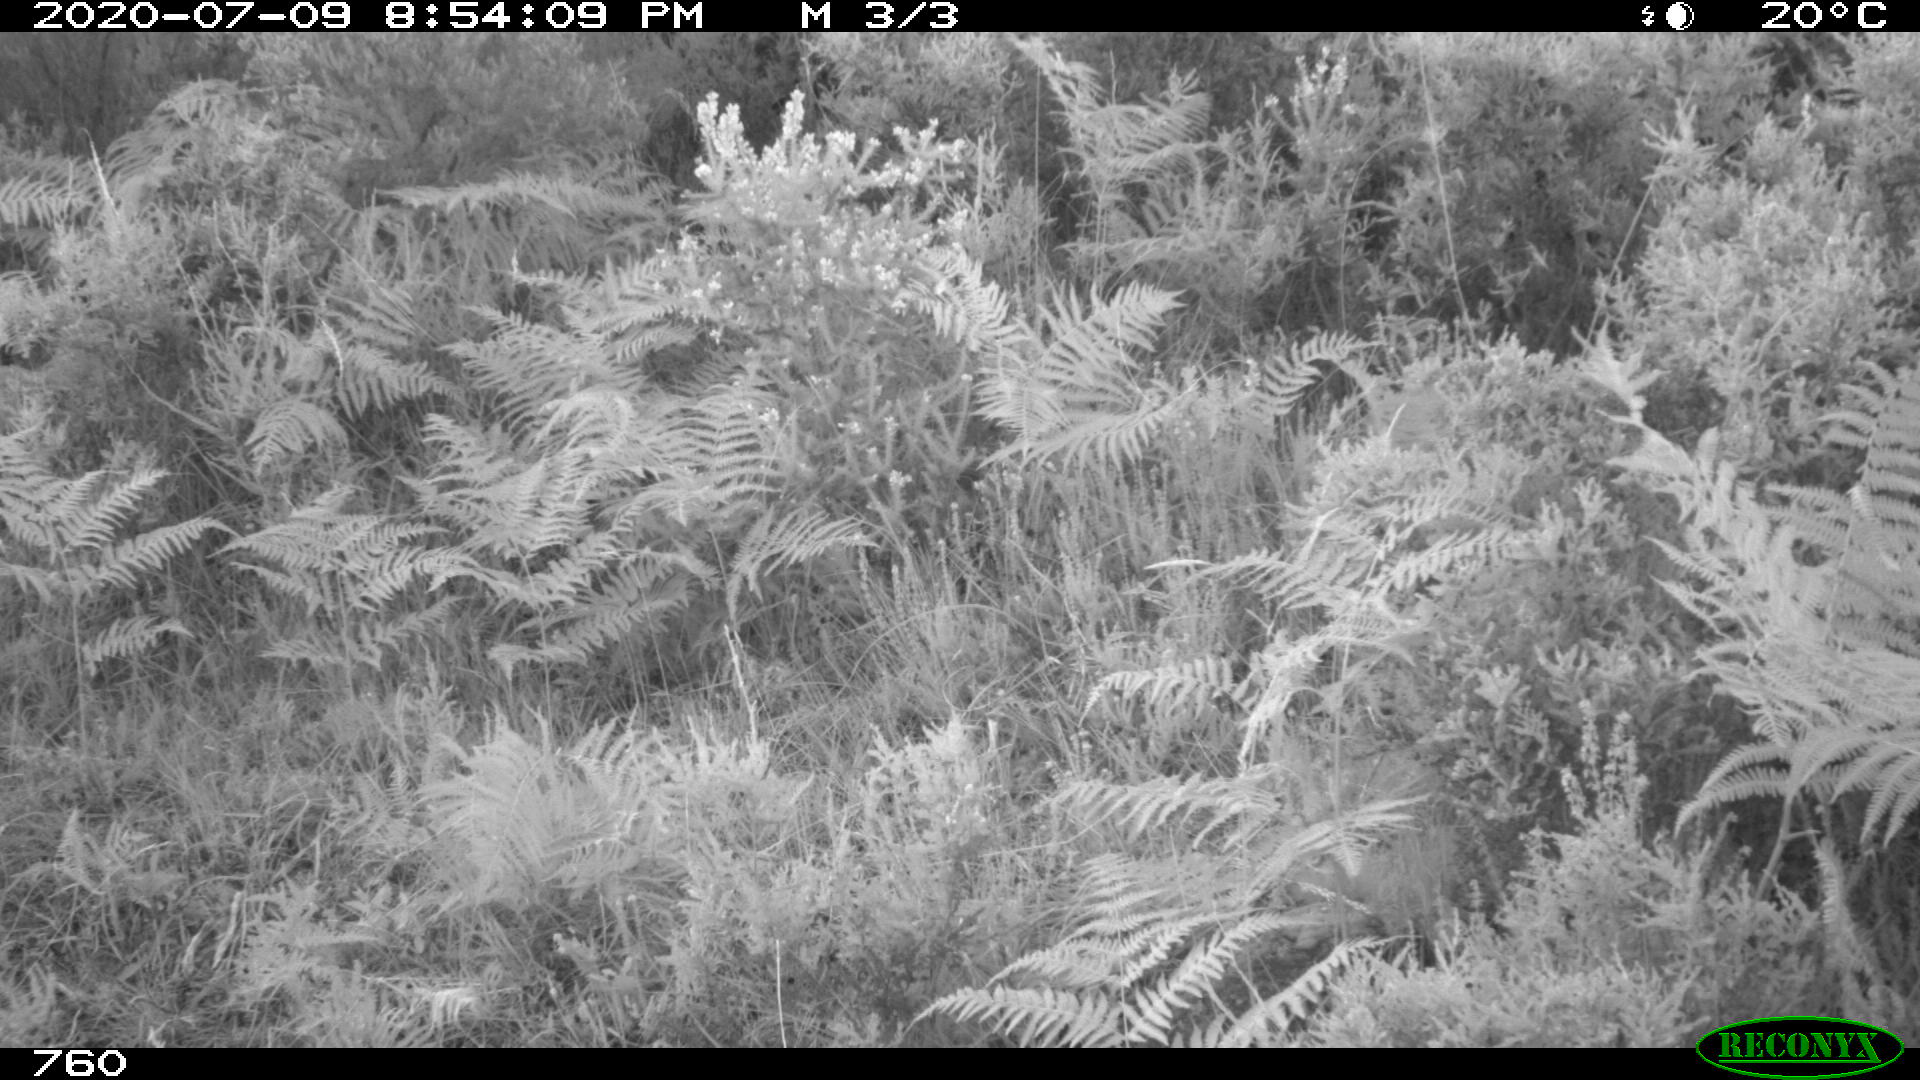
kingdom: Animalia
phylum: Chordata
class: Mammalia
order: Artiodactyla
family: Suidae
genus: Sus
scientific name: Sus scrofa
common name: Wild boar
